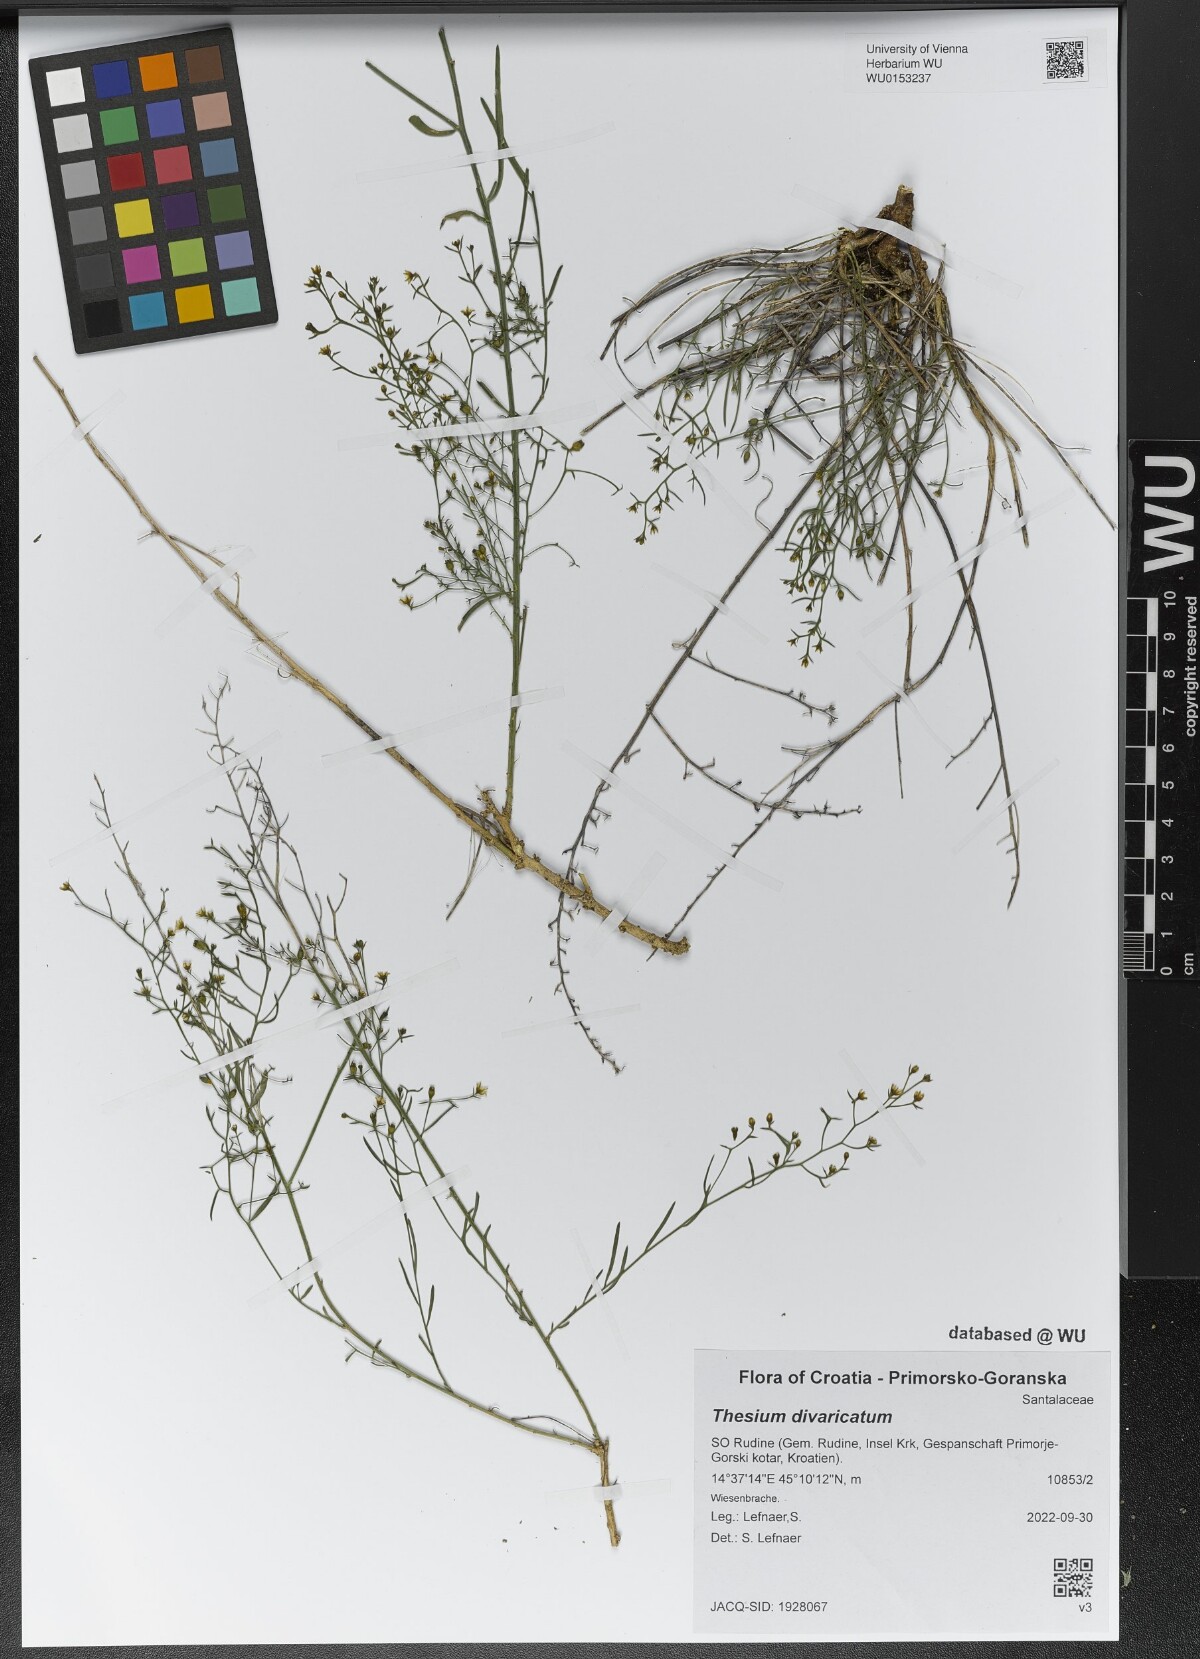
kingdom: Plantae
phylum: Tracheophyta
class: Magnoliopsida
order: Santalales
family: Thesiaceae
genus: Thesium
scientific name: Thesium divaricatum
